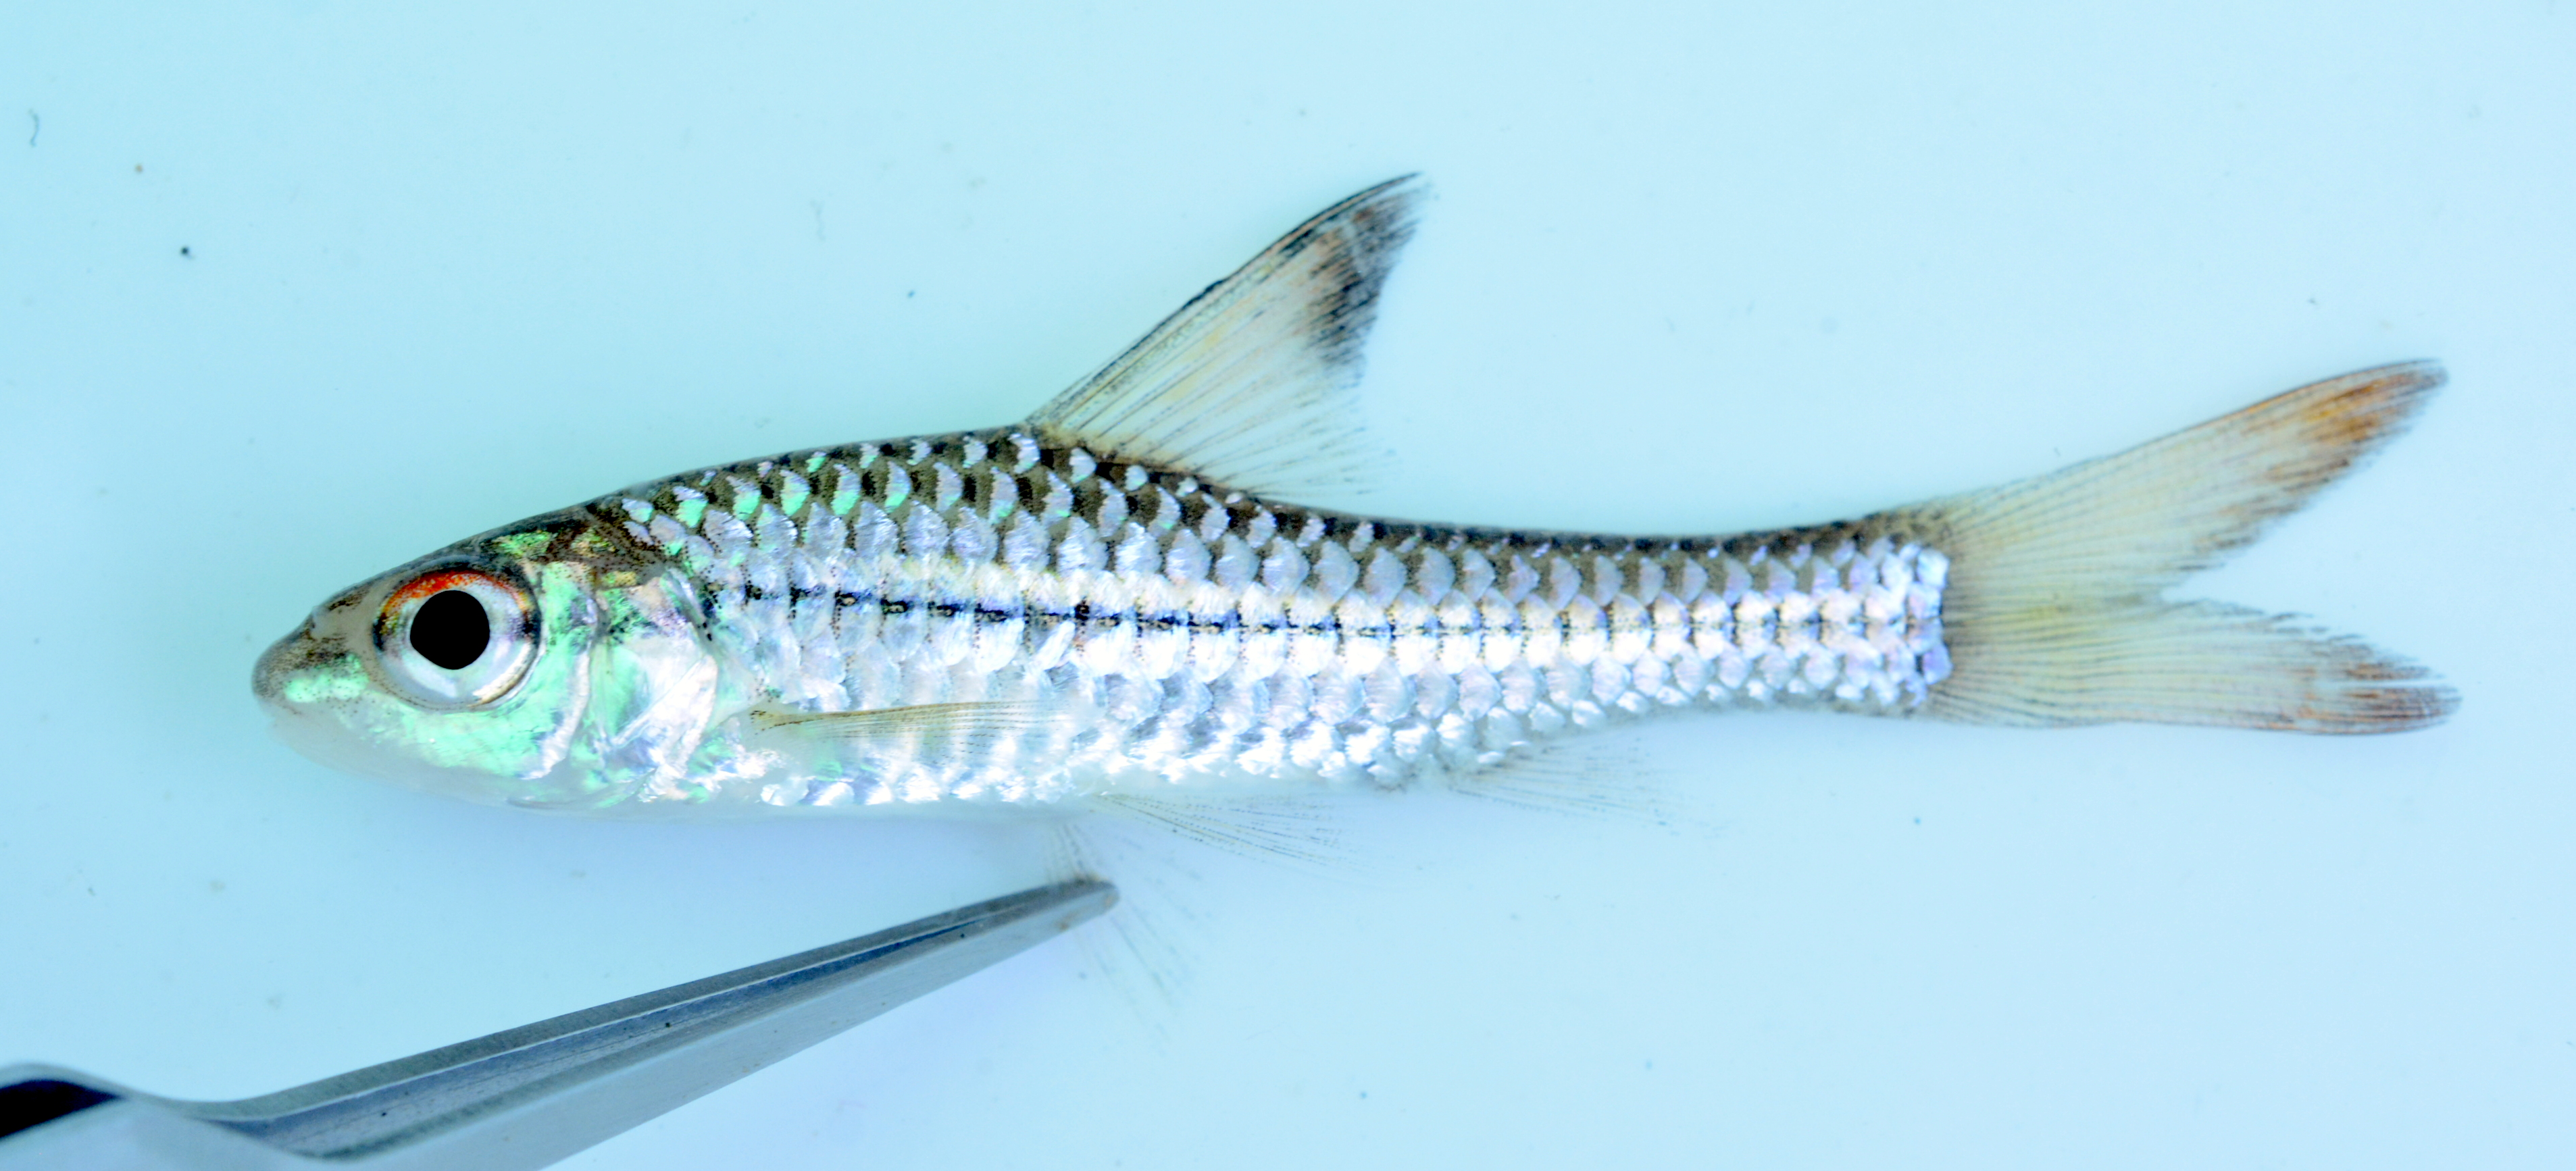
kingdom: Animalia
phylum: Chordata
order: Cypriniformes
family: Cyprinidae
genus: Enteromius
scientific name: Enteromius radiatus
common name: Beira barb
